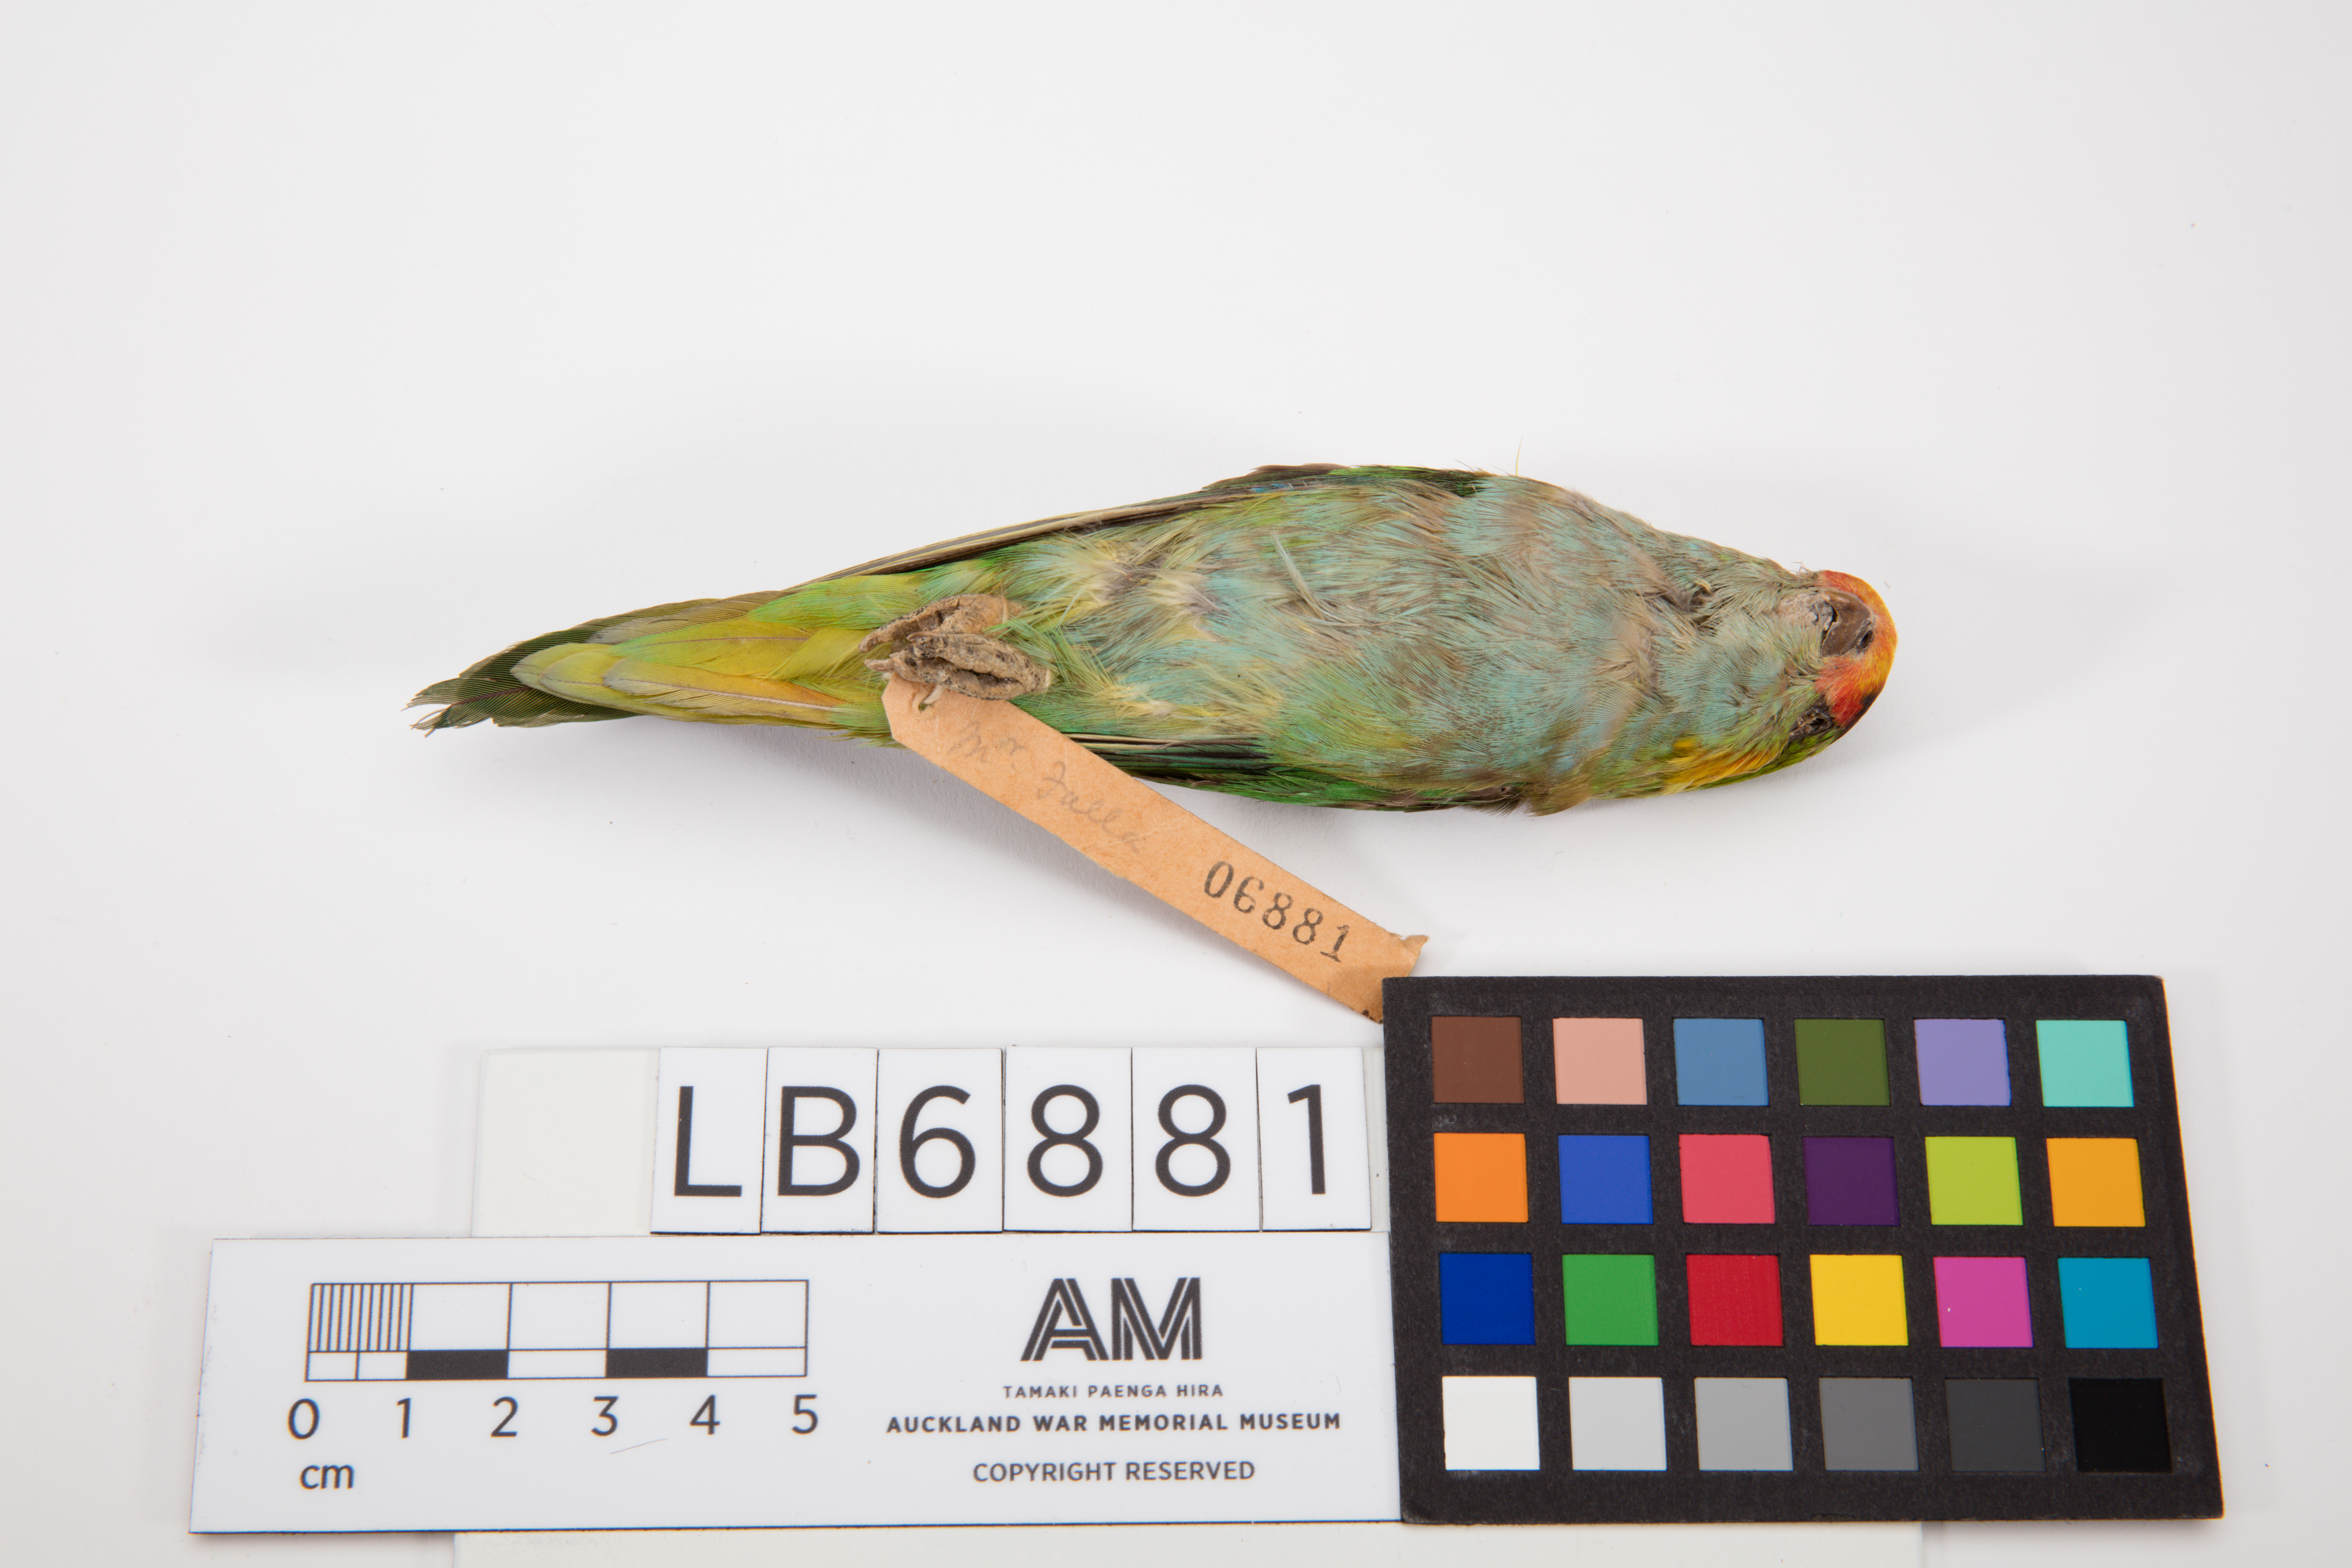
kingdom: Animalia
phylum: Chordata
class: Aves
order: Psittaciformes
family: Psittacidae
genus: Glossopsitta
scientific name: Glossopsitta porphyrocephala
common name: Purple-crowned lorikeet
